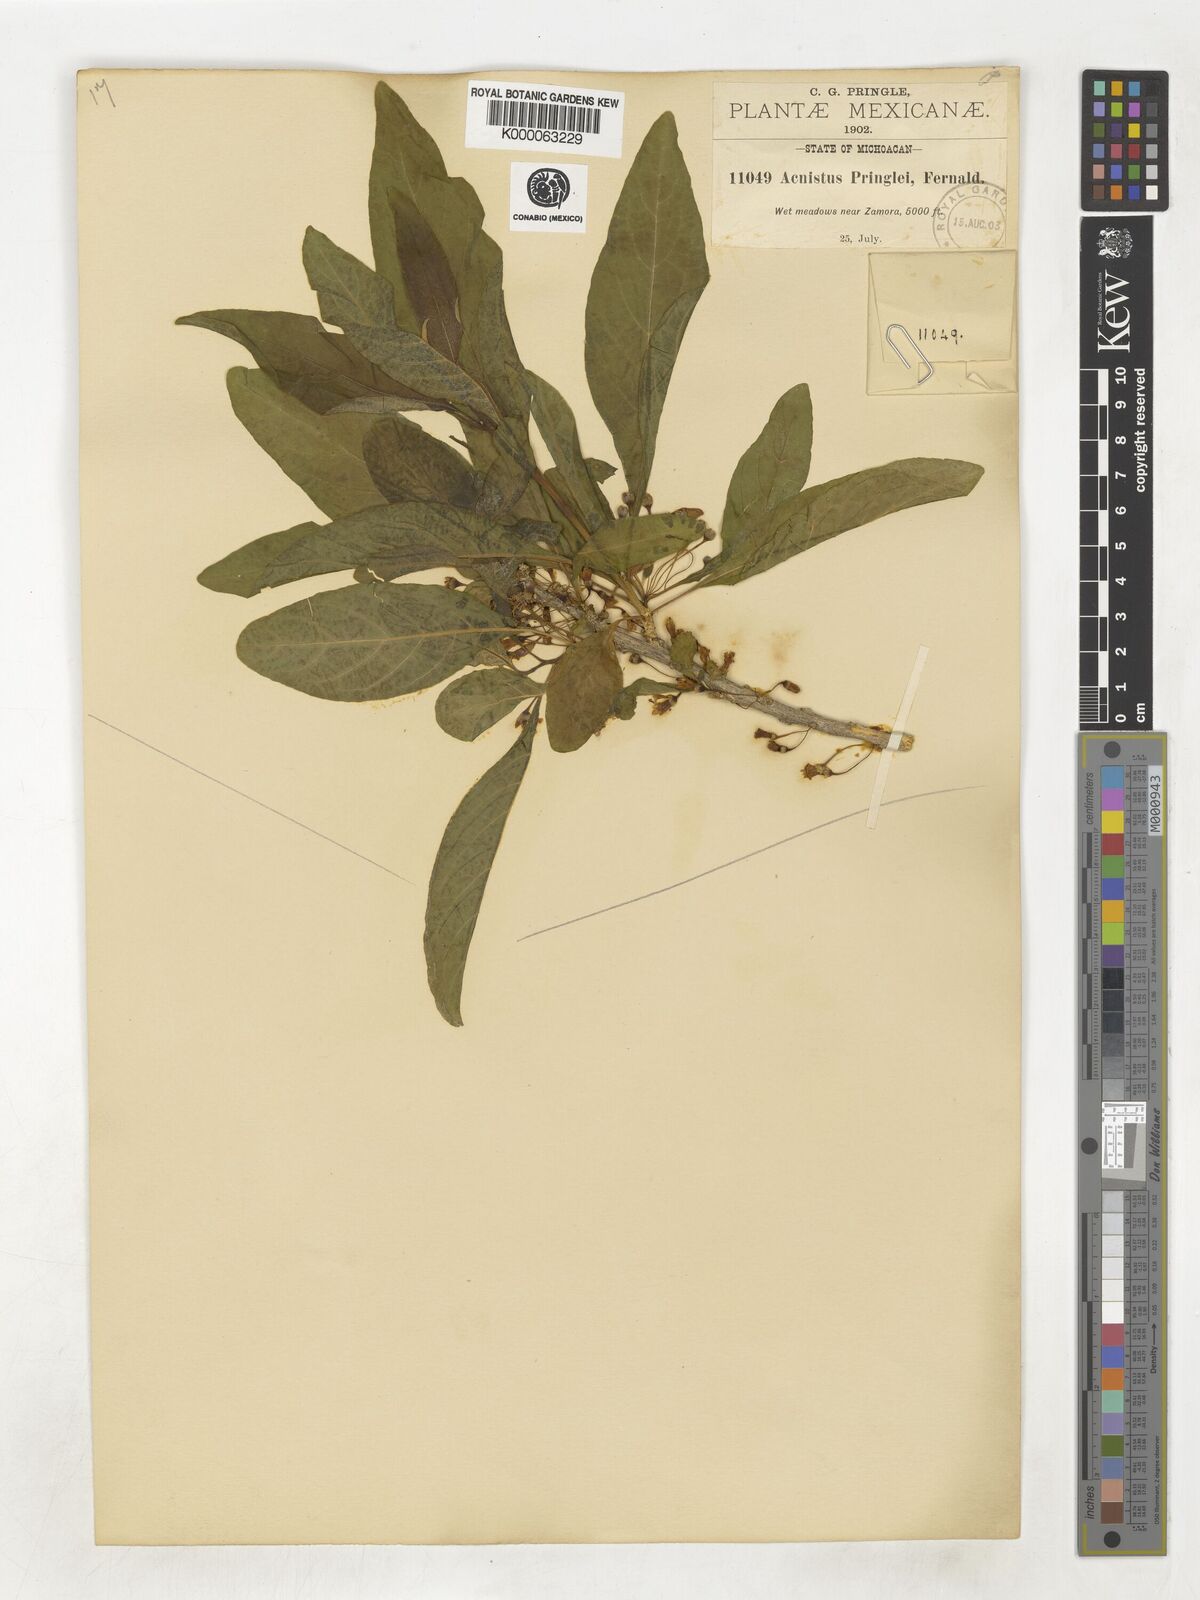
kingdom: Plantae
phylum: Tracheophyta
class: Magnoliopsida
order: Solanales
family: Solanaceae
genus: Iochroma
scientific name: Iochroma arborescens
